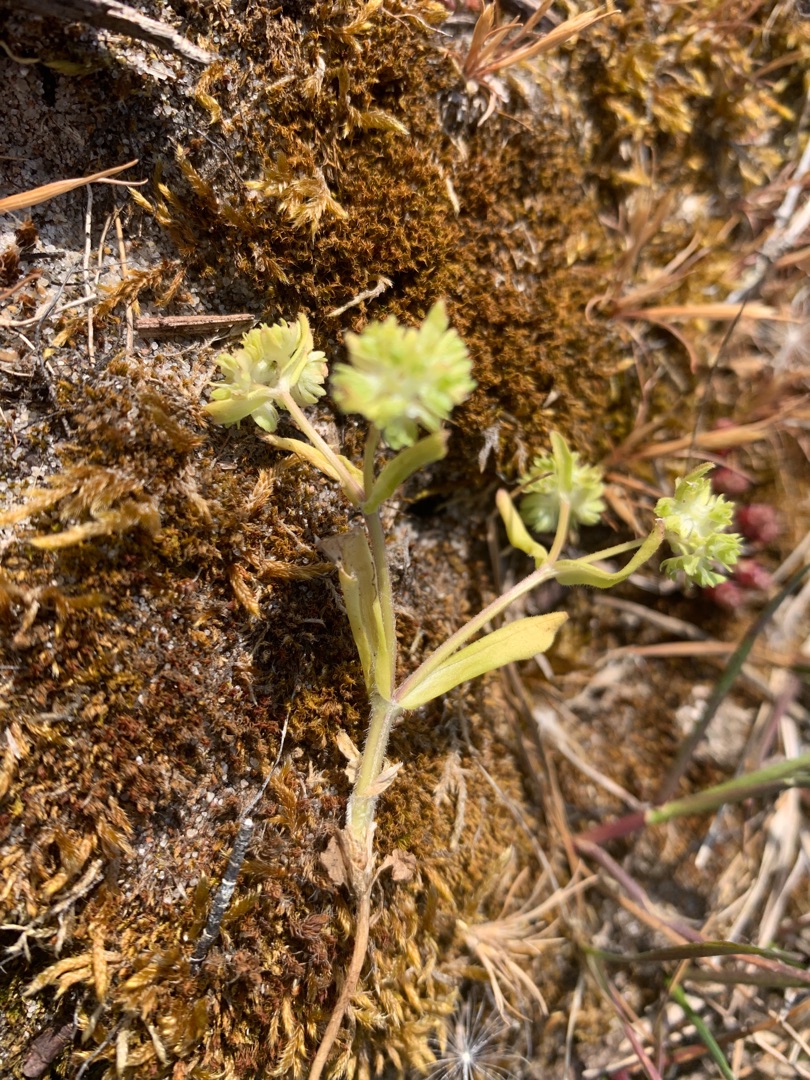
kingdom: Plantae
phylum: Tracheophyta
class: Magnoliopsida
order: Dipsacales
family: Caprifoliaceae
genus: Valerianella
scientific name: Valerianella locusta
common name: Tandfri vårsalat
